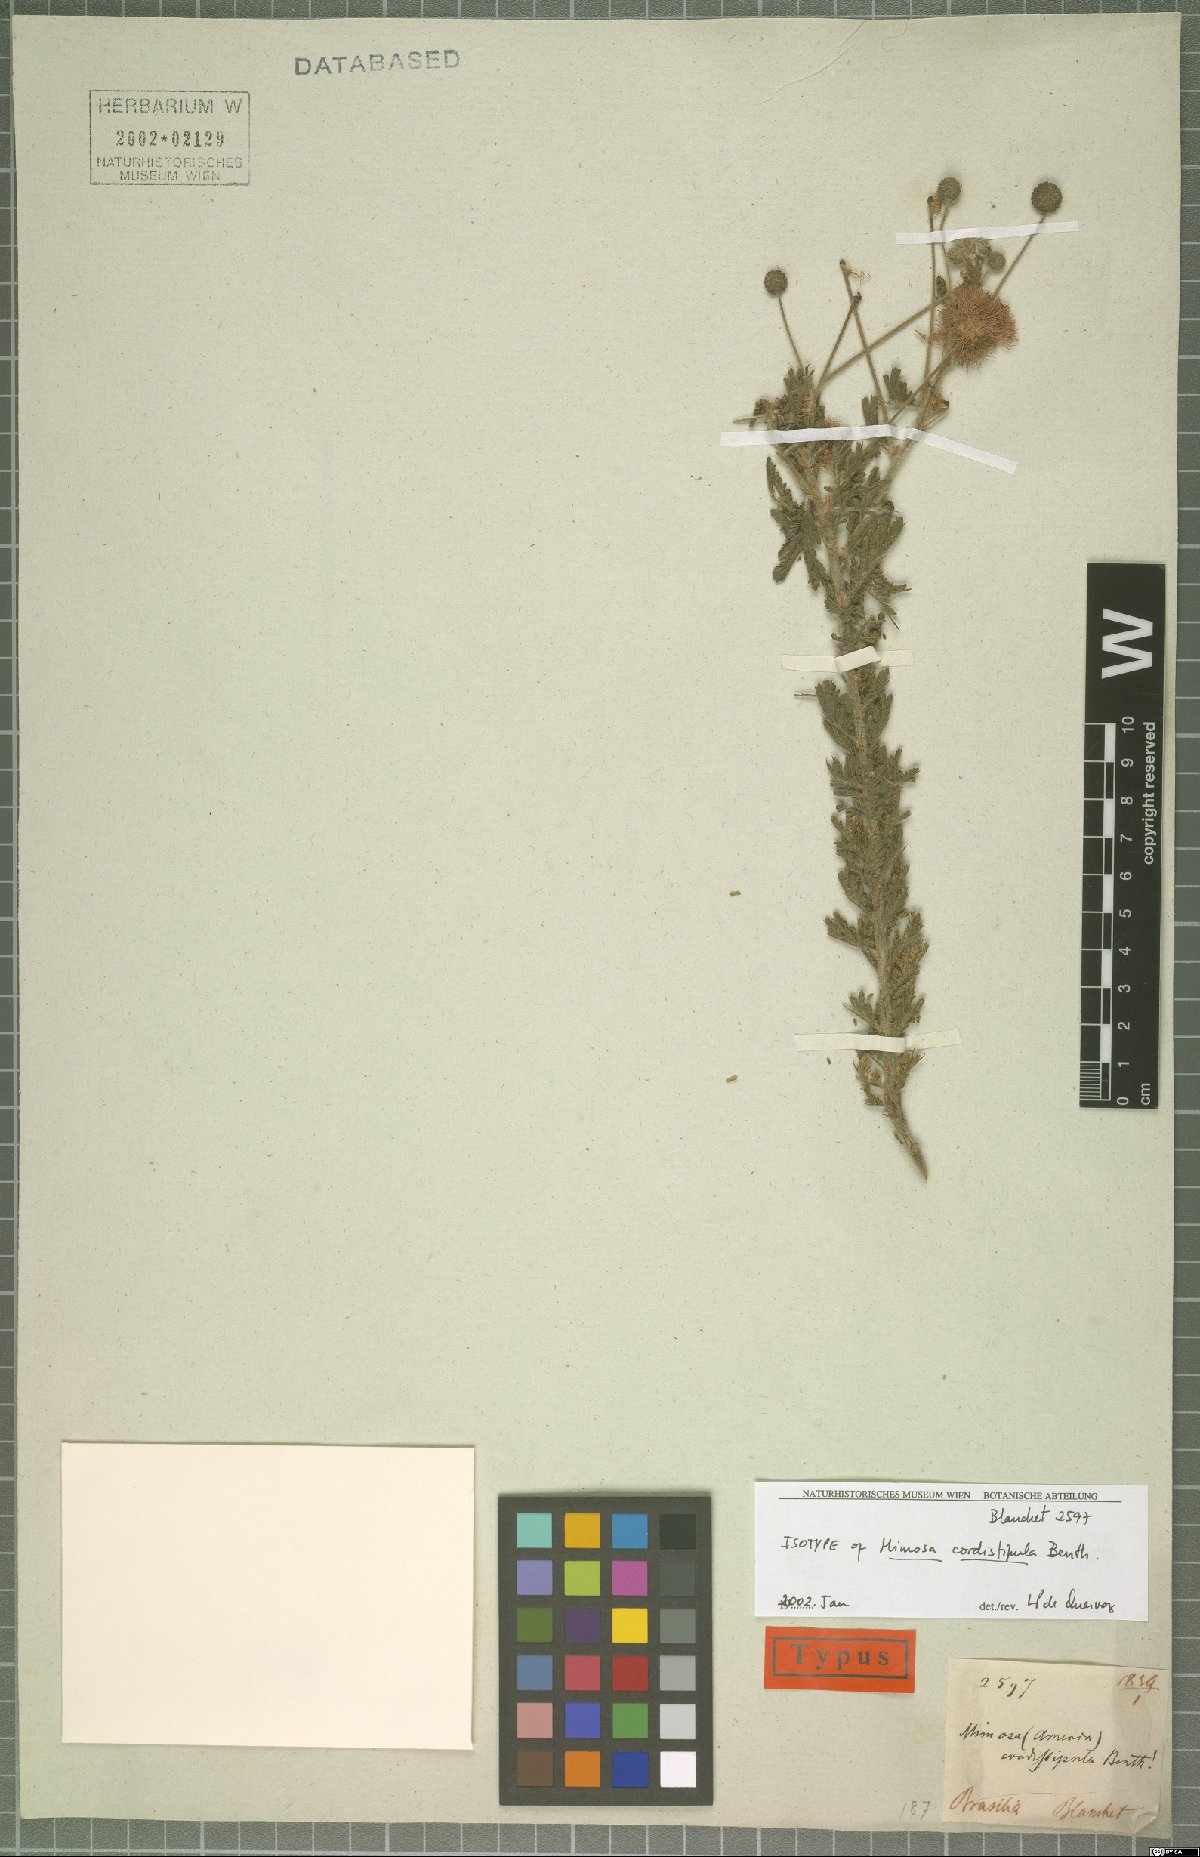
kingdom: Plantae
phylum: Tracheophyta
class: Magnoliopsida
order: Fabales
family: Fabaceae
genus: Mimosa
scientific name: Mimosa cordistipula
